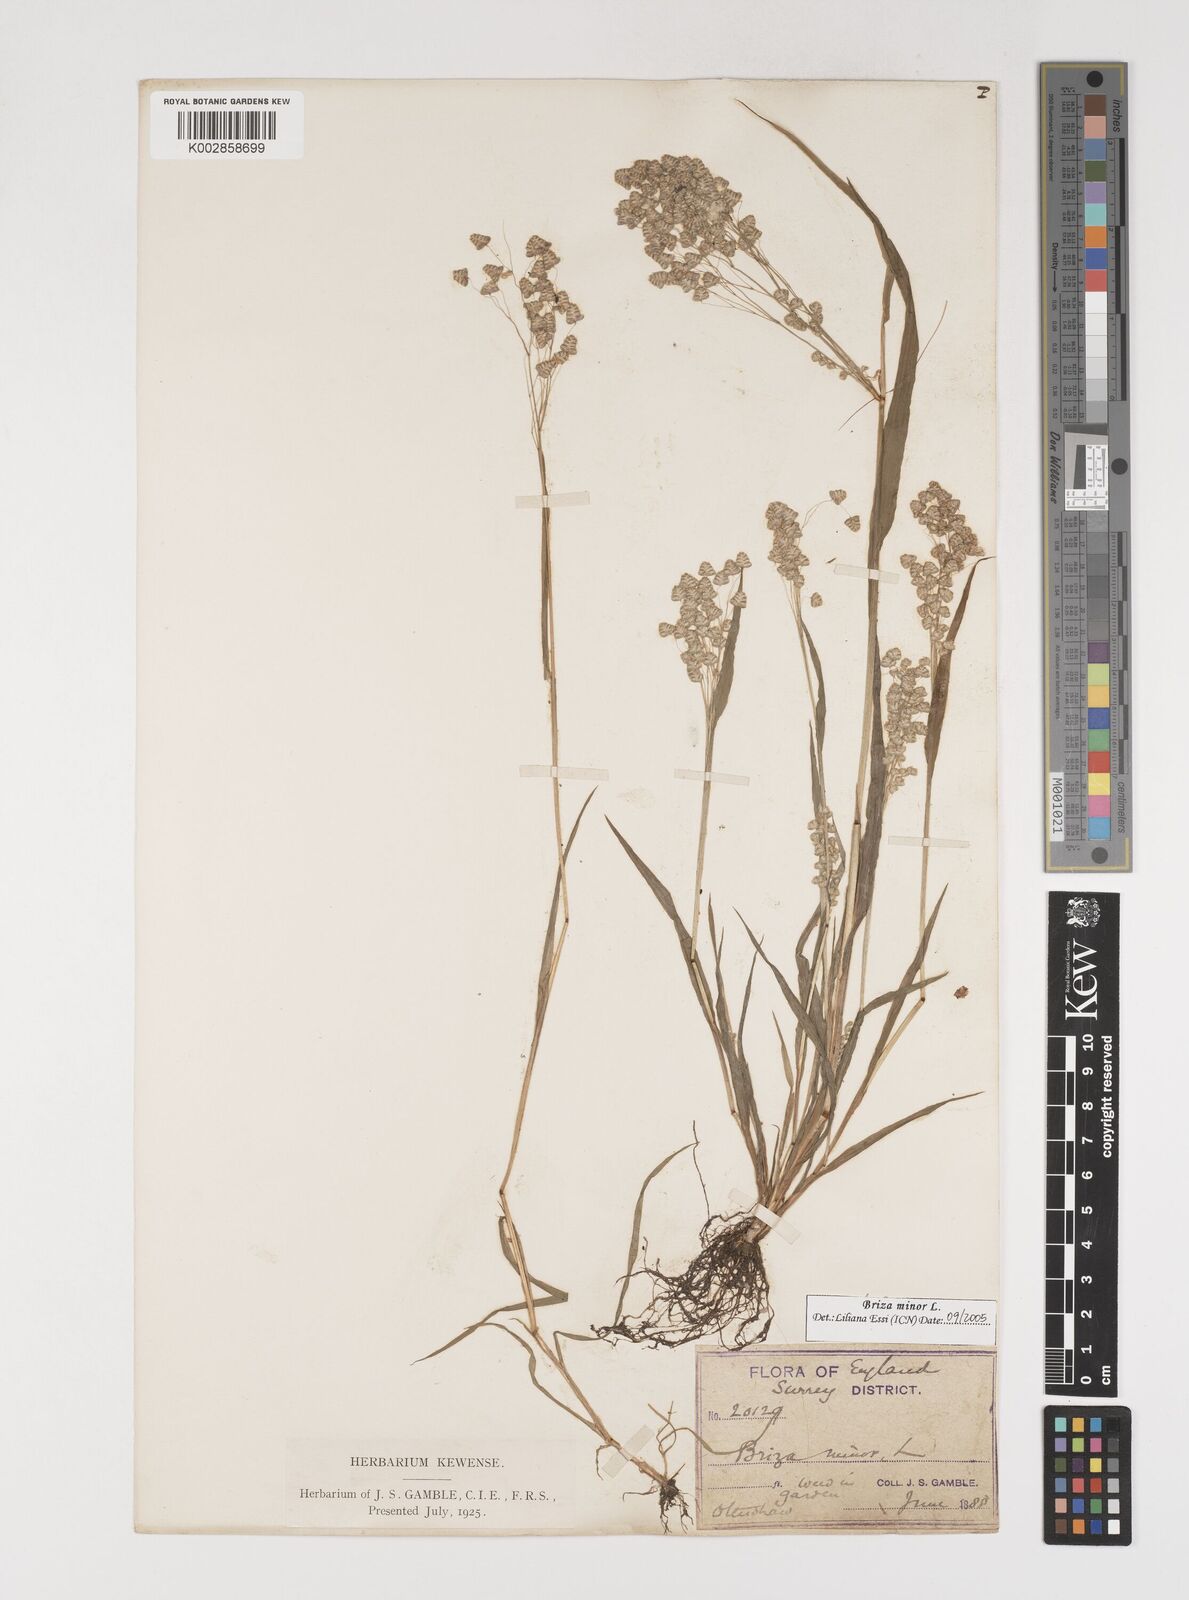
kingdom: Plantae
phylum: Tracheophyta
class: Liliopsida
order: Poales
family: Poaceae
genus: Briza
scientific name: Briza minor
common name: Lesser quaking-grass
